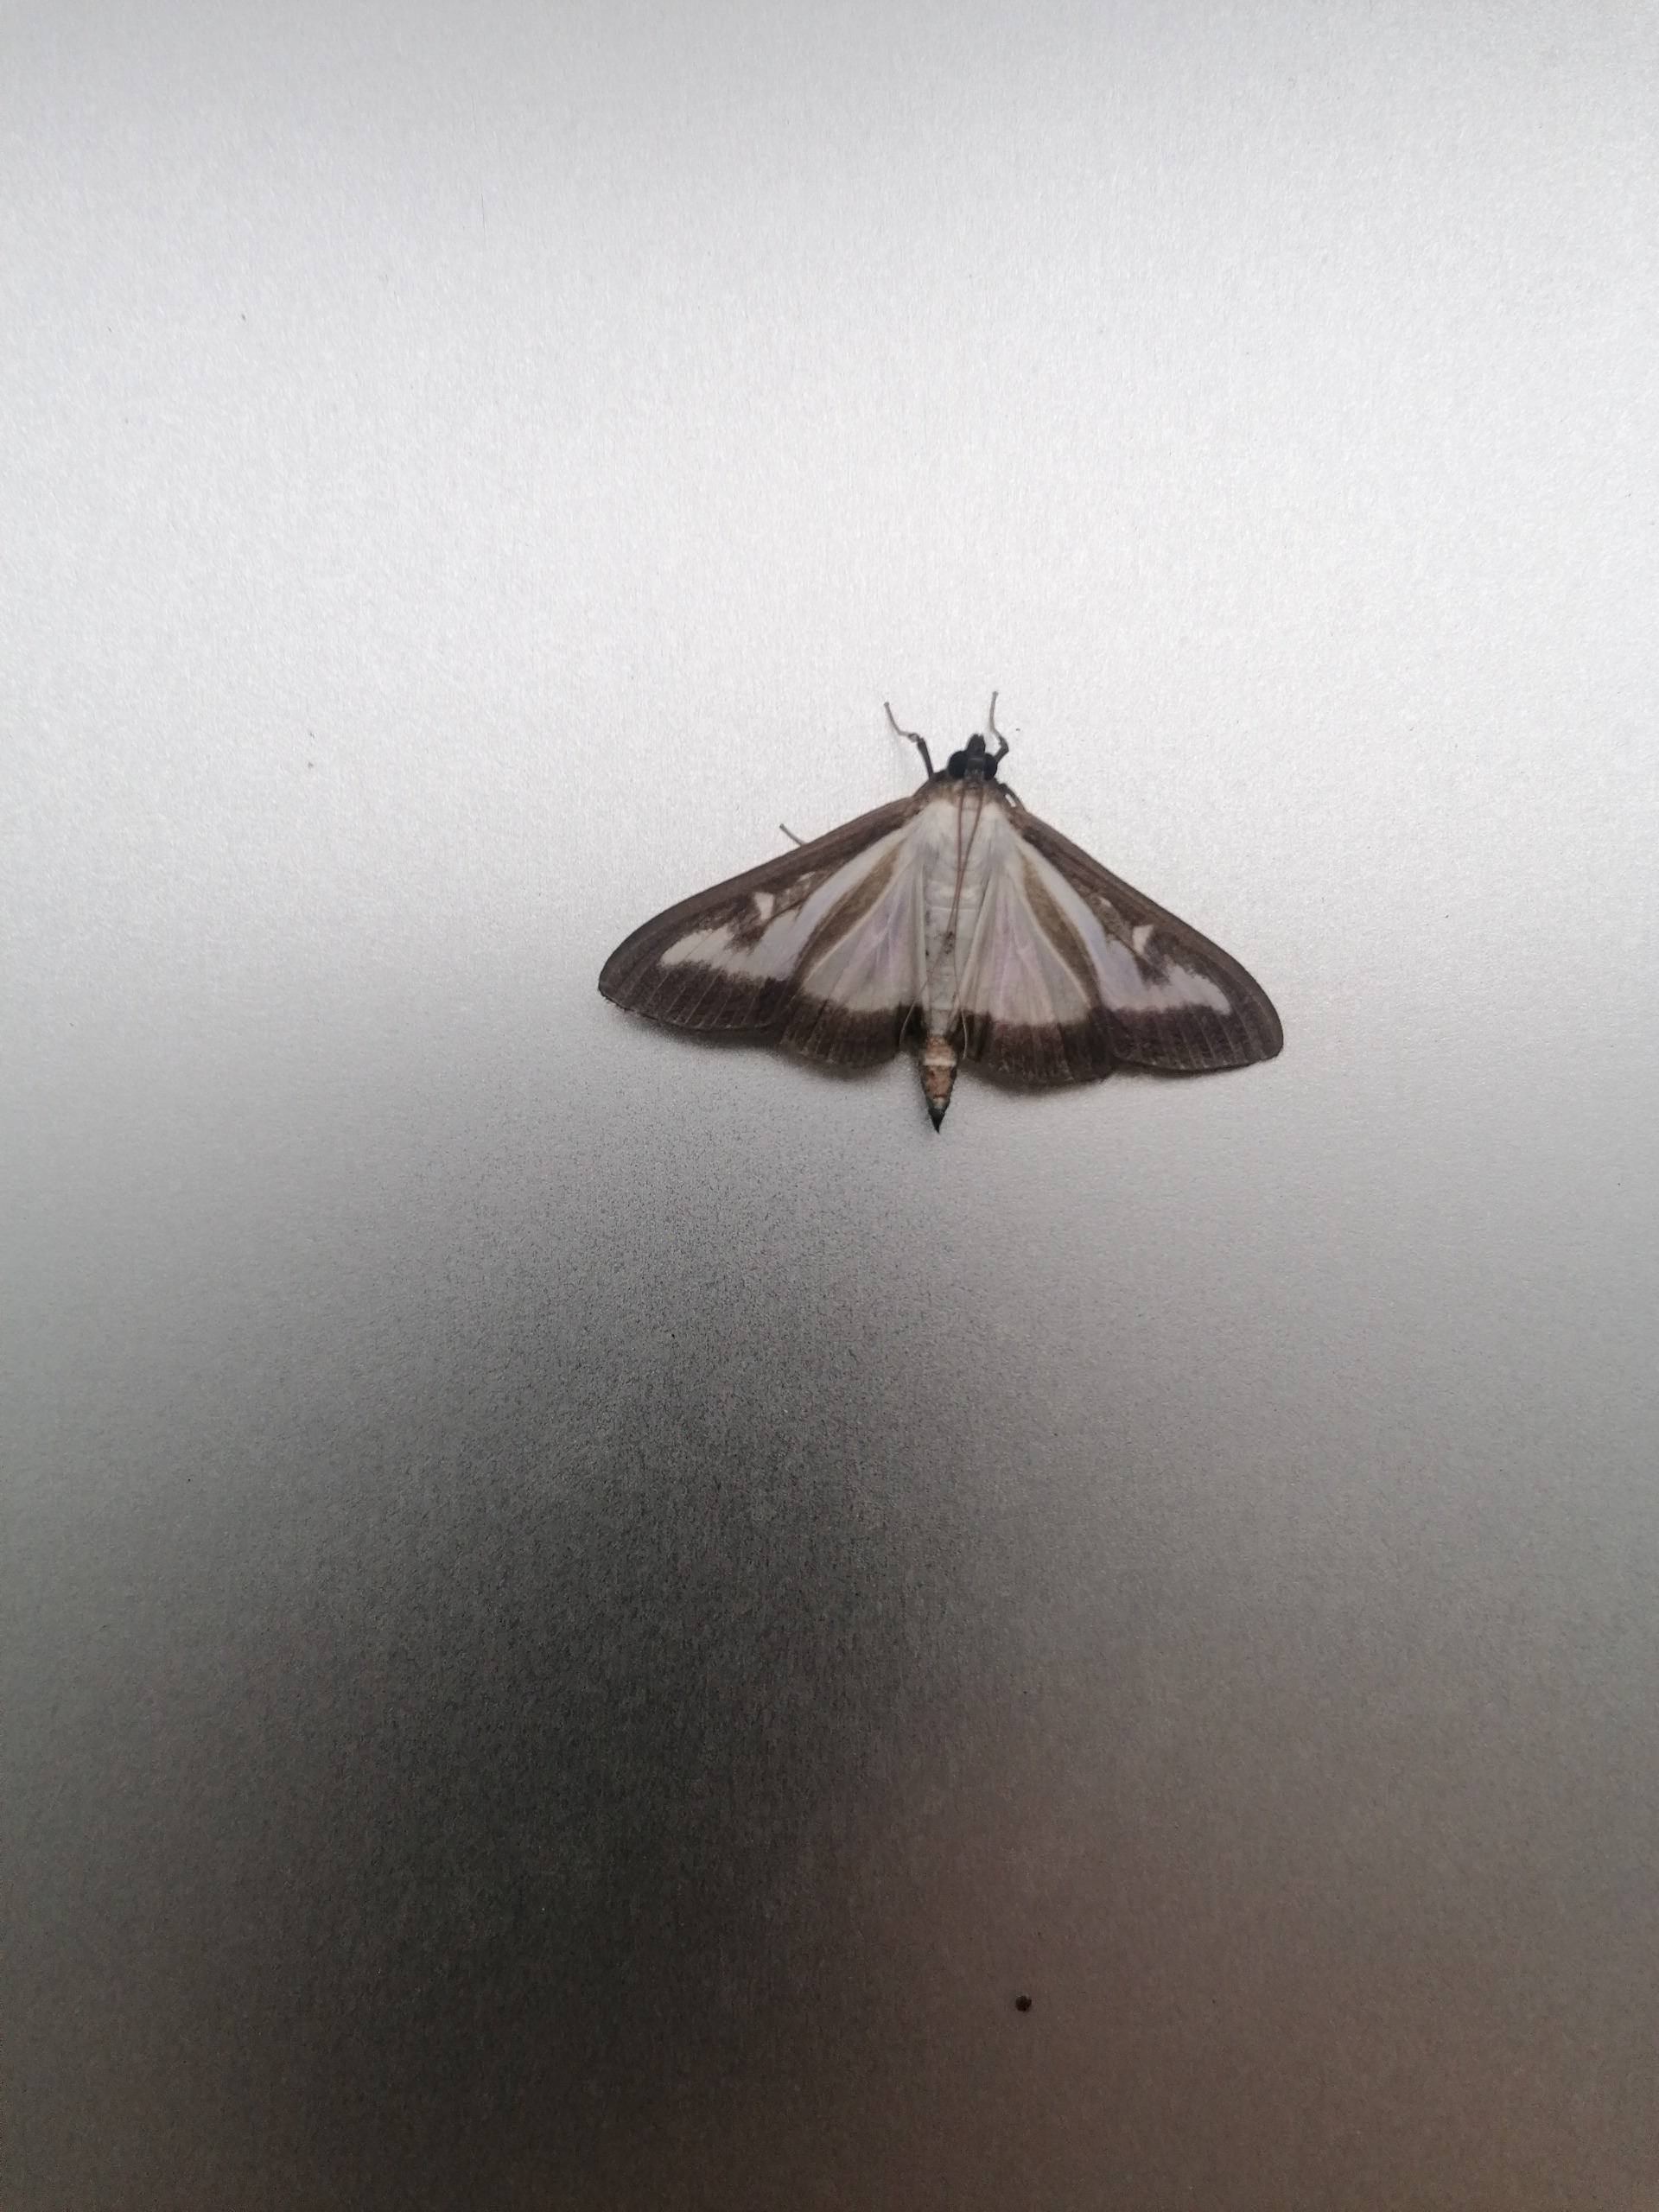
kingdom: Animalia
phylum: Arthropoda
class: Insecta
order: Lepidoptera
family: Crambidae
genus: Cydalima
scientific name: Cydalima perspectalis
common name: Buksbomhalvmøl
